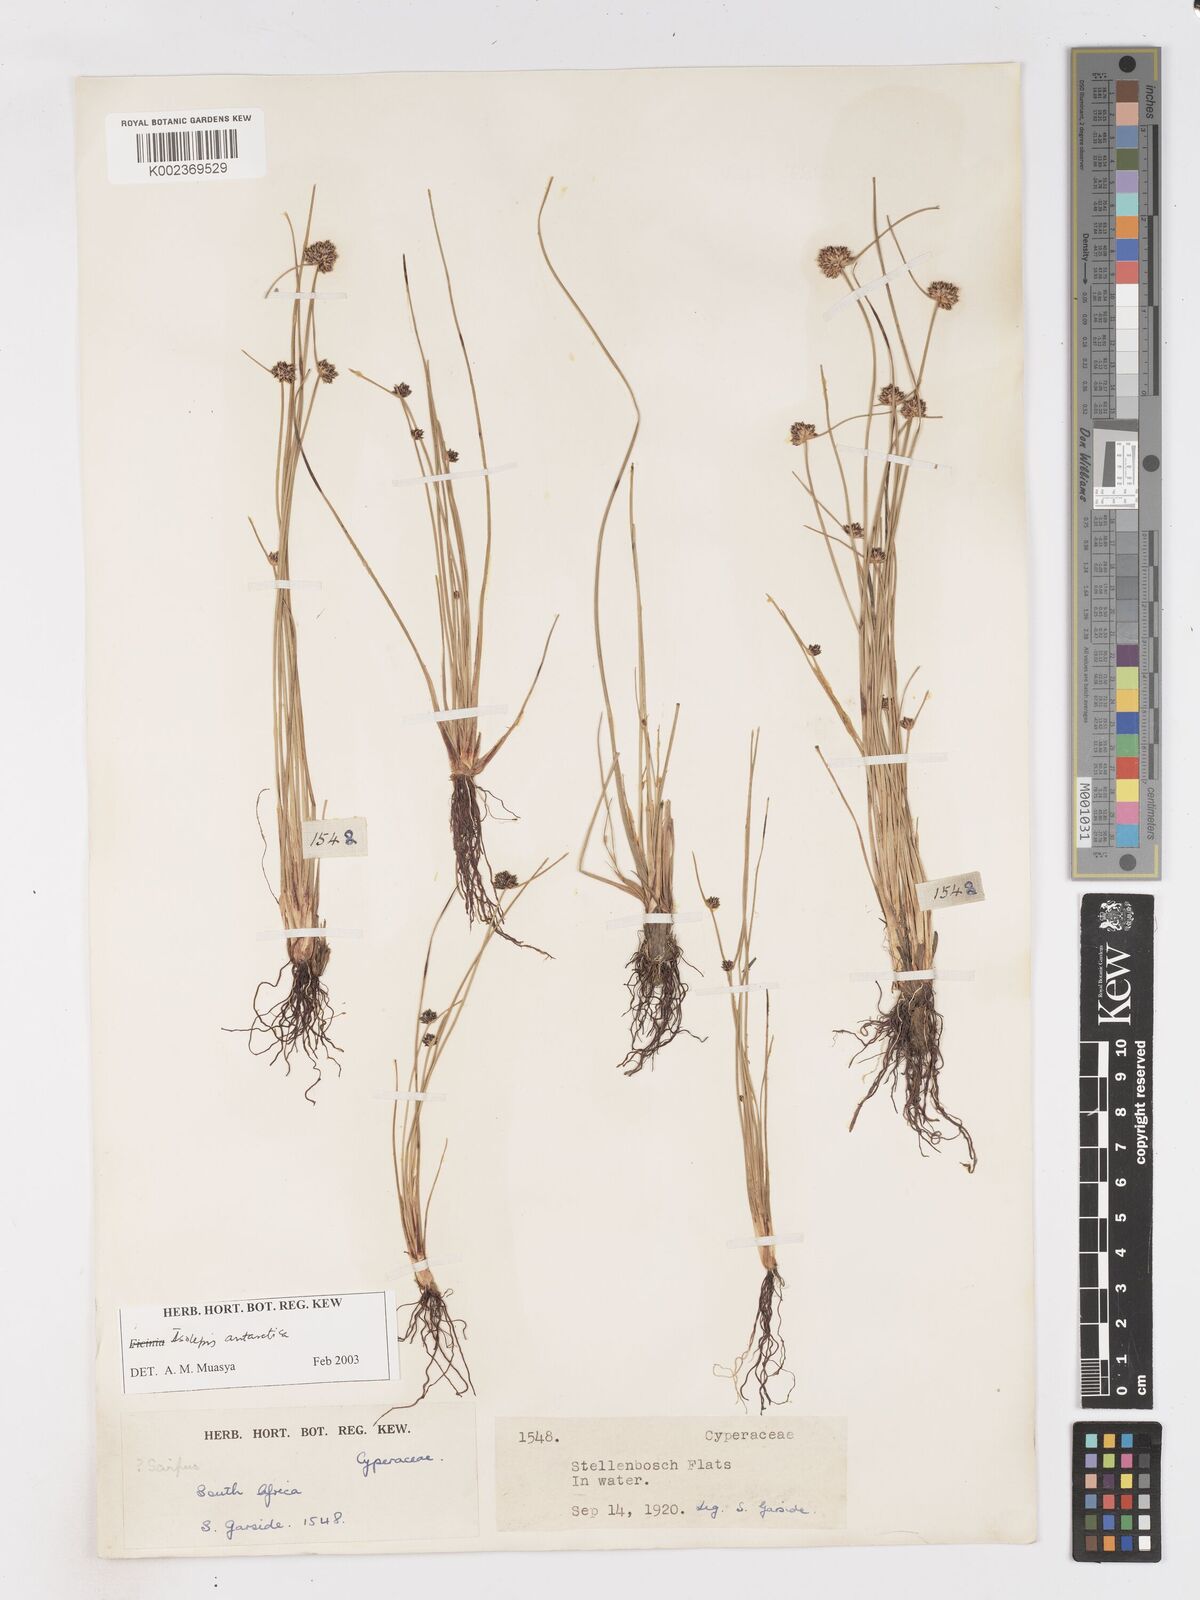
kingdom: Plantae
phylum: Tracheophyta
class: Liliopsida
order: Poales
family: Cyperaceae
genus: Isolepis
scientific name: Isolepis antarctica
